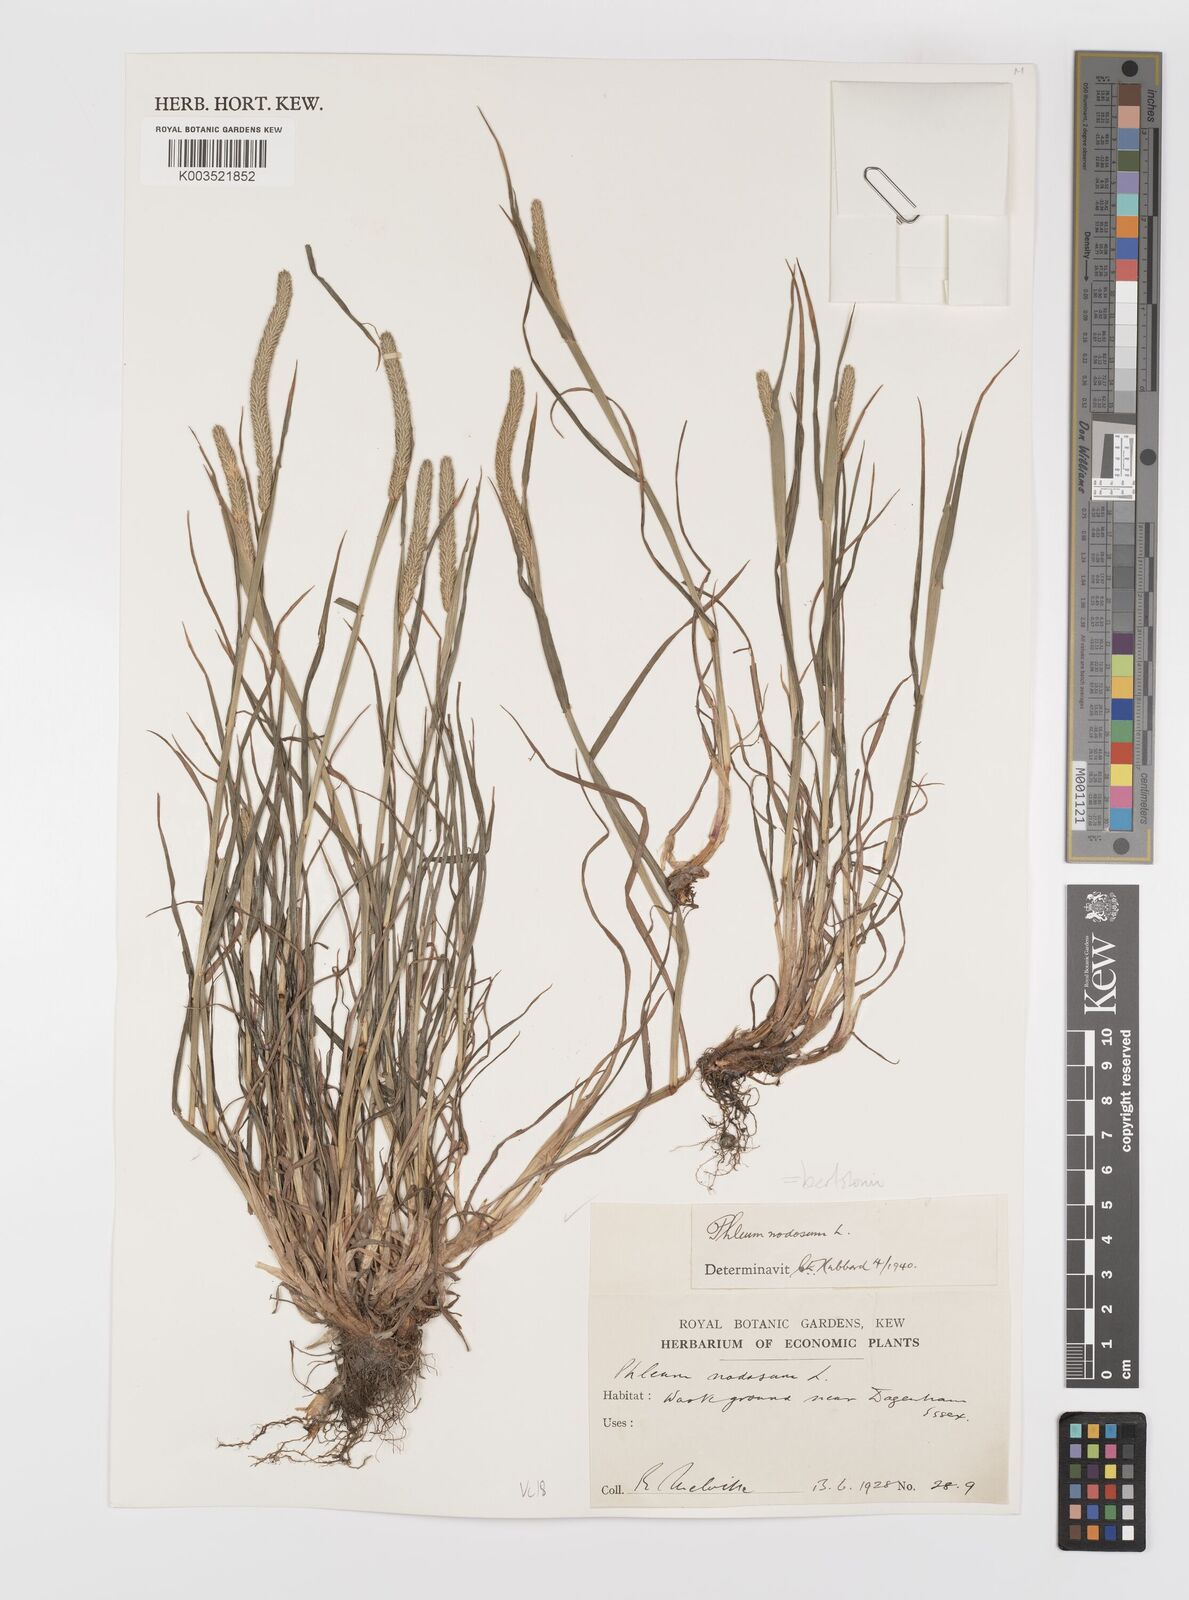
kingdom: Plantae
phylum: Tracheophyta
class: Liliopsida
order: Poales
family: Poaceae
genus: Phleum
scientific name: Phleum bertolonii
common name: Smaller cat's-tail
